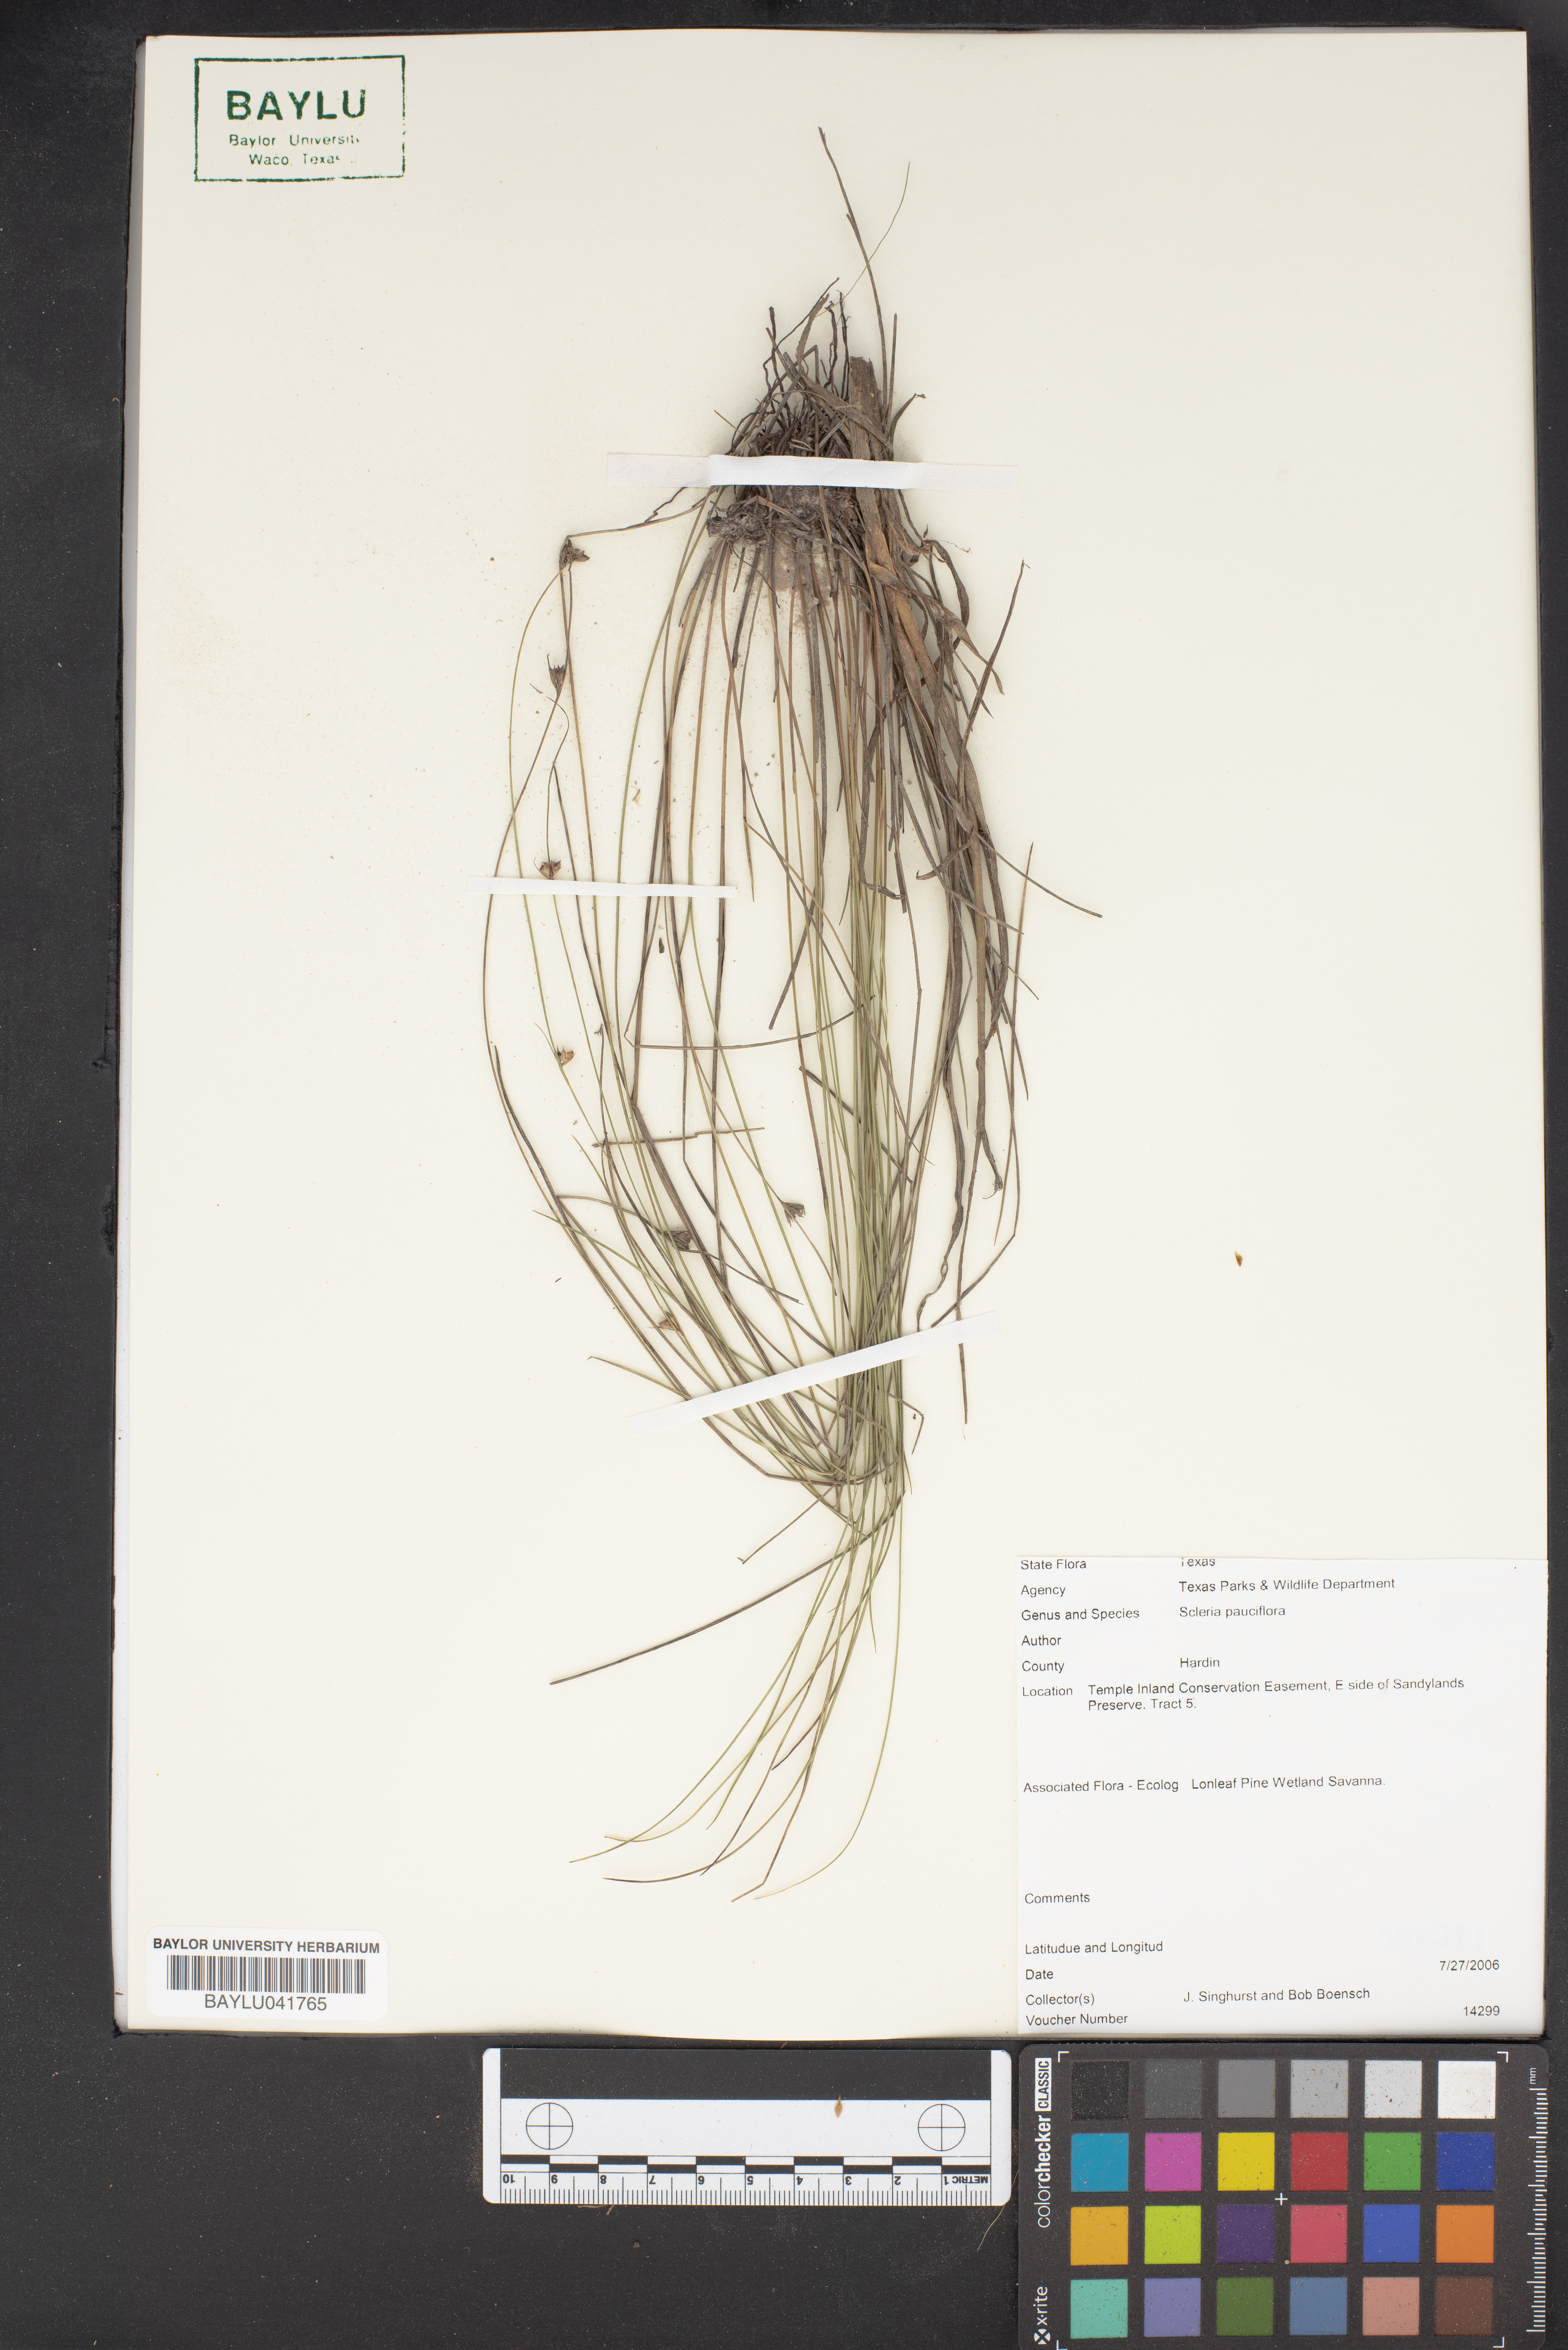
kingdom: Plantae
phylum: Tracheophyta
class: Liliopsida
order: Poales
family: Cyperaceae
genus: Scleria
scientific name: Scleria pauciflora
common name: Few-flowered nutrush
